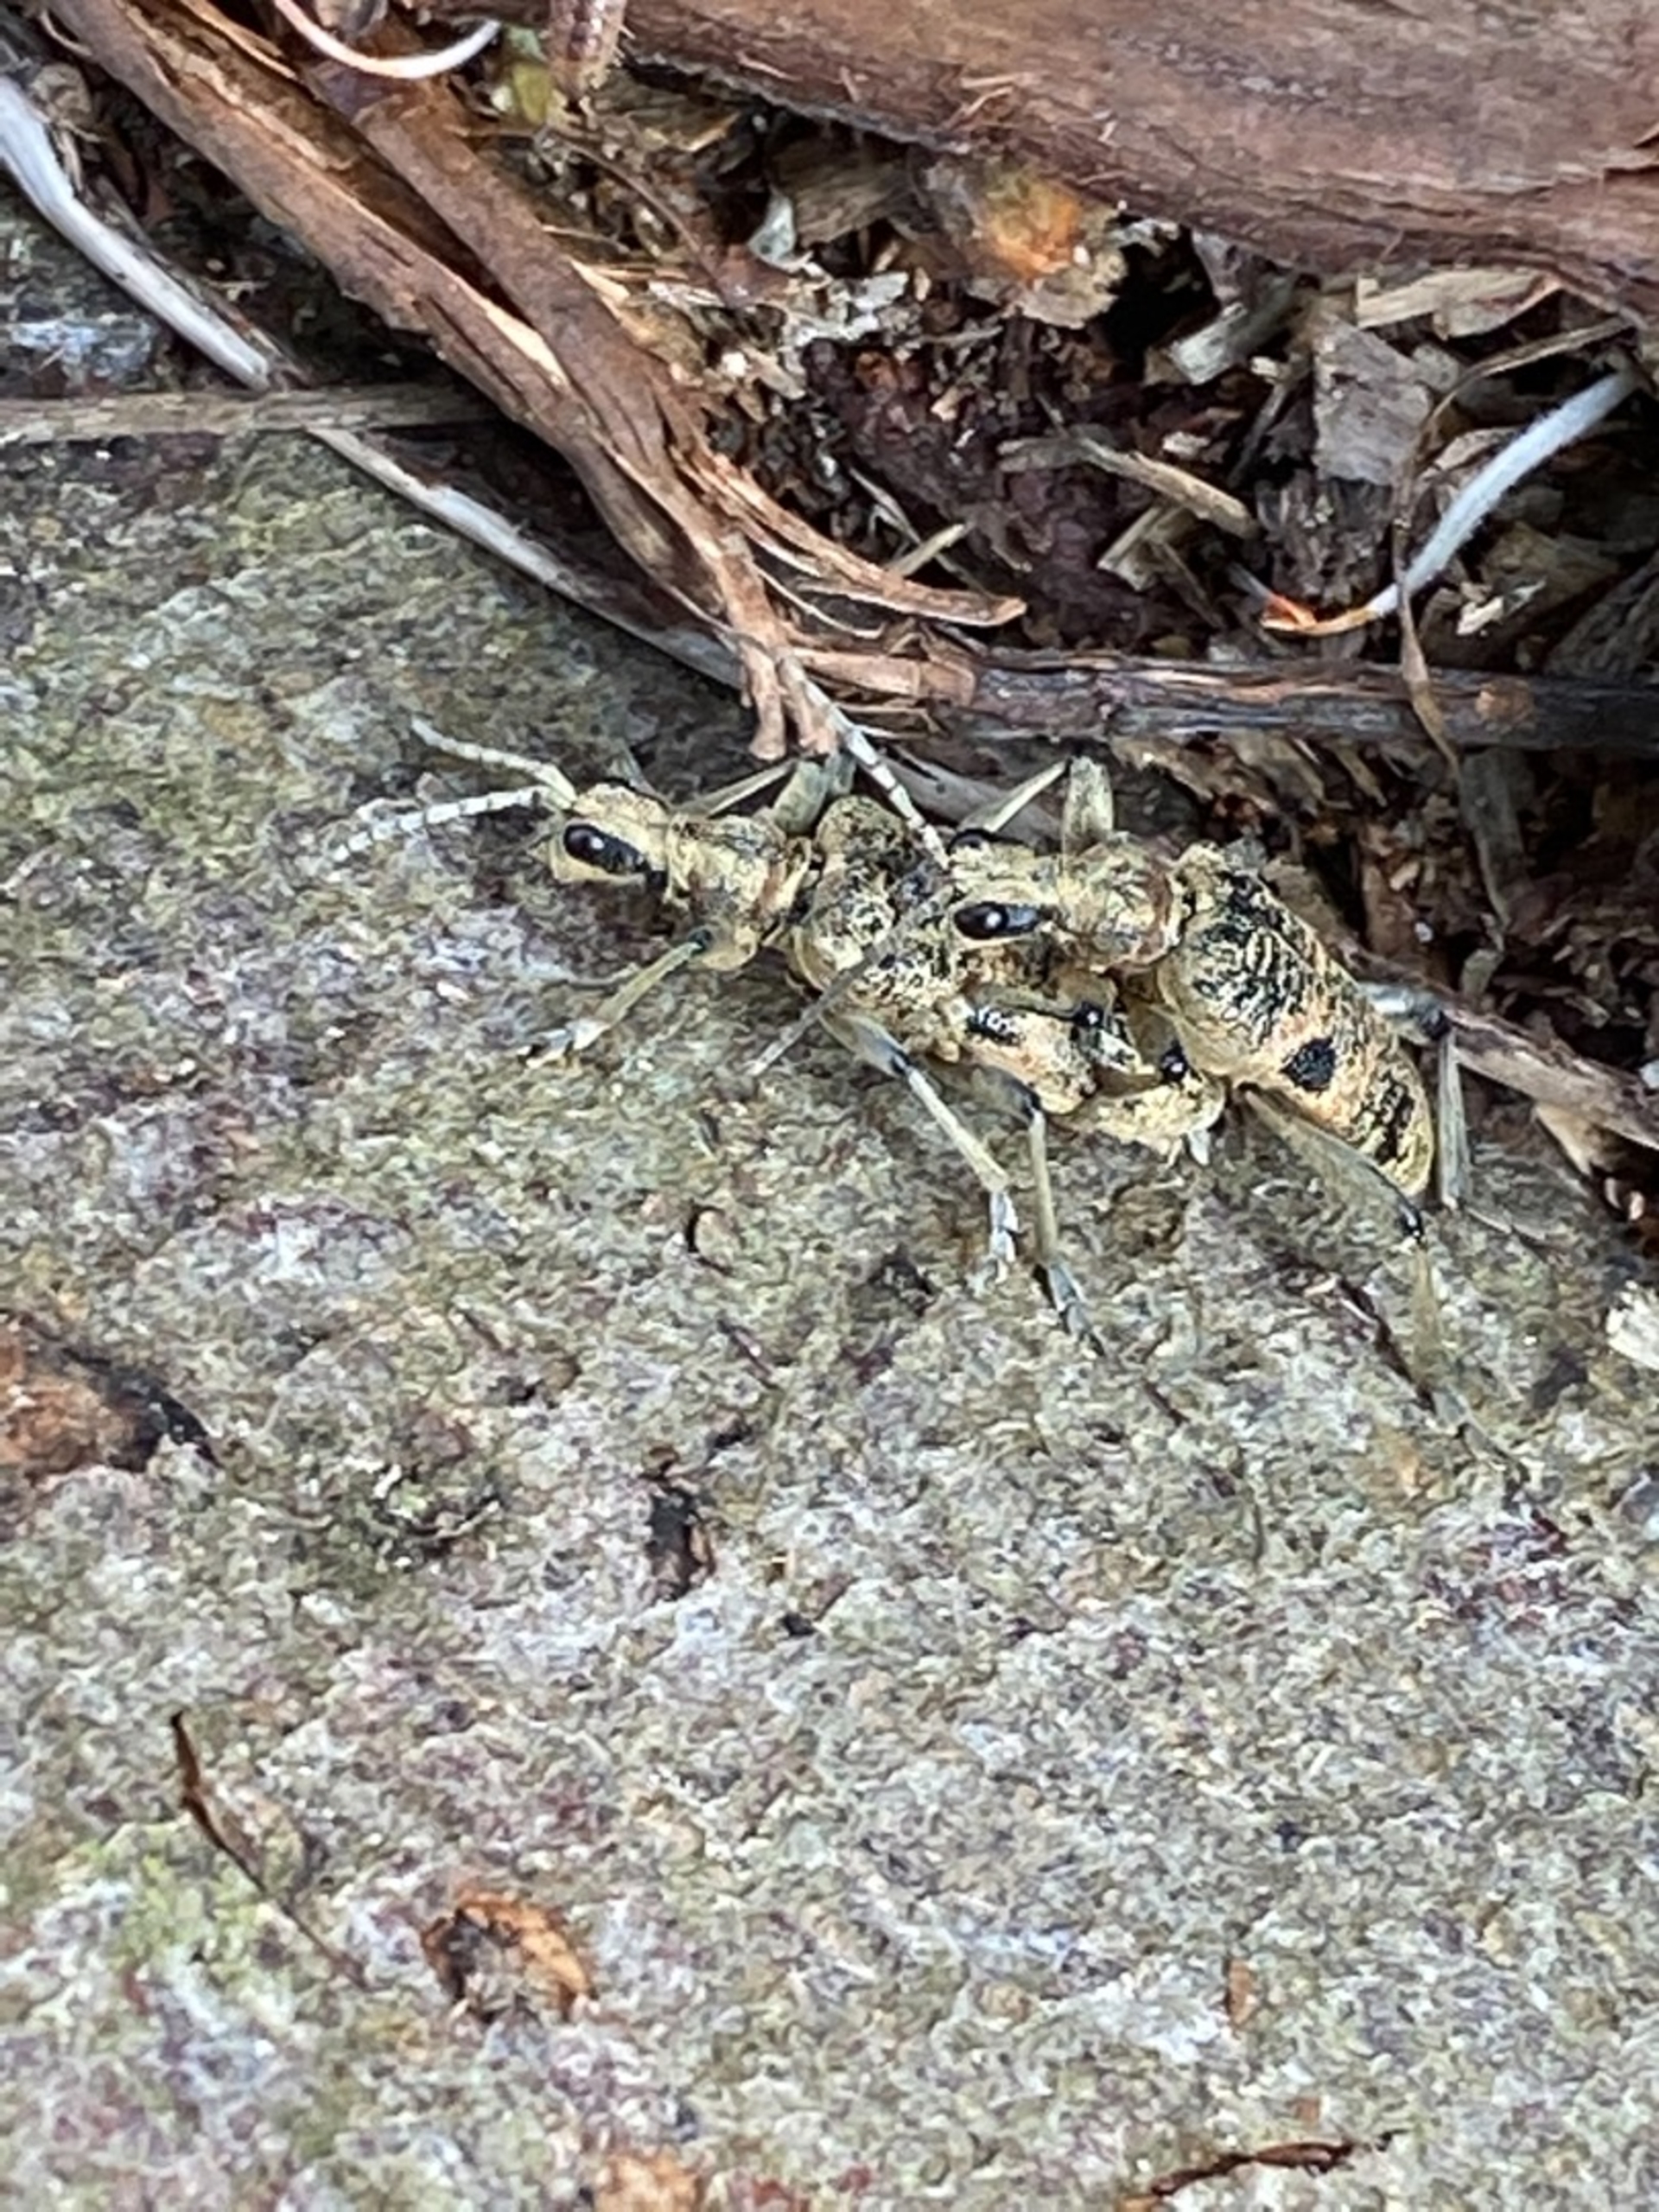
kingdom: Animalia
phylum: Arthropoda
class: Insecta
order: Coleoptera
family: Cerambycidae
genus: Rhagium
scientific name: Rhagium mordax
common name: Blankplettet tandbuk
